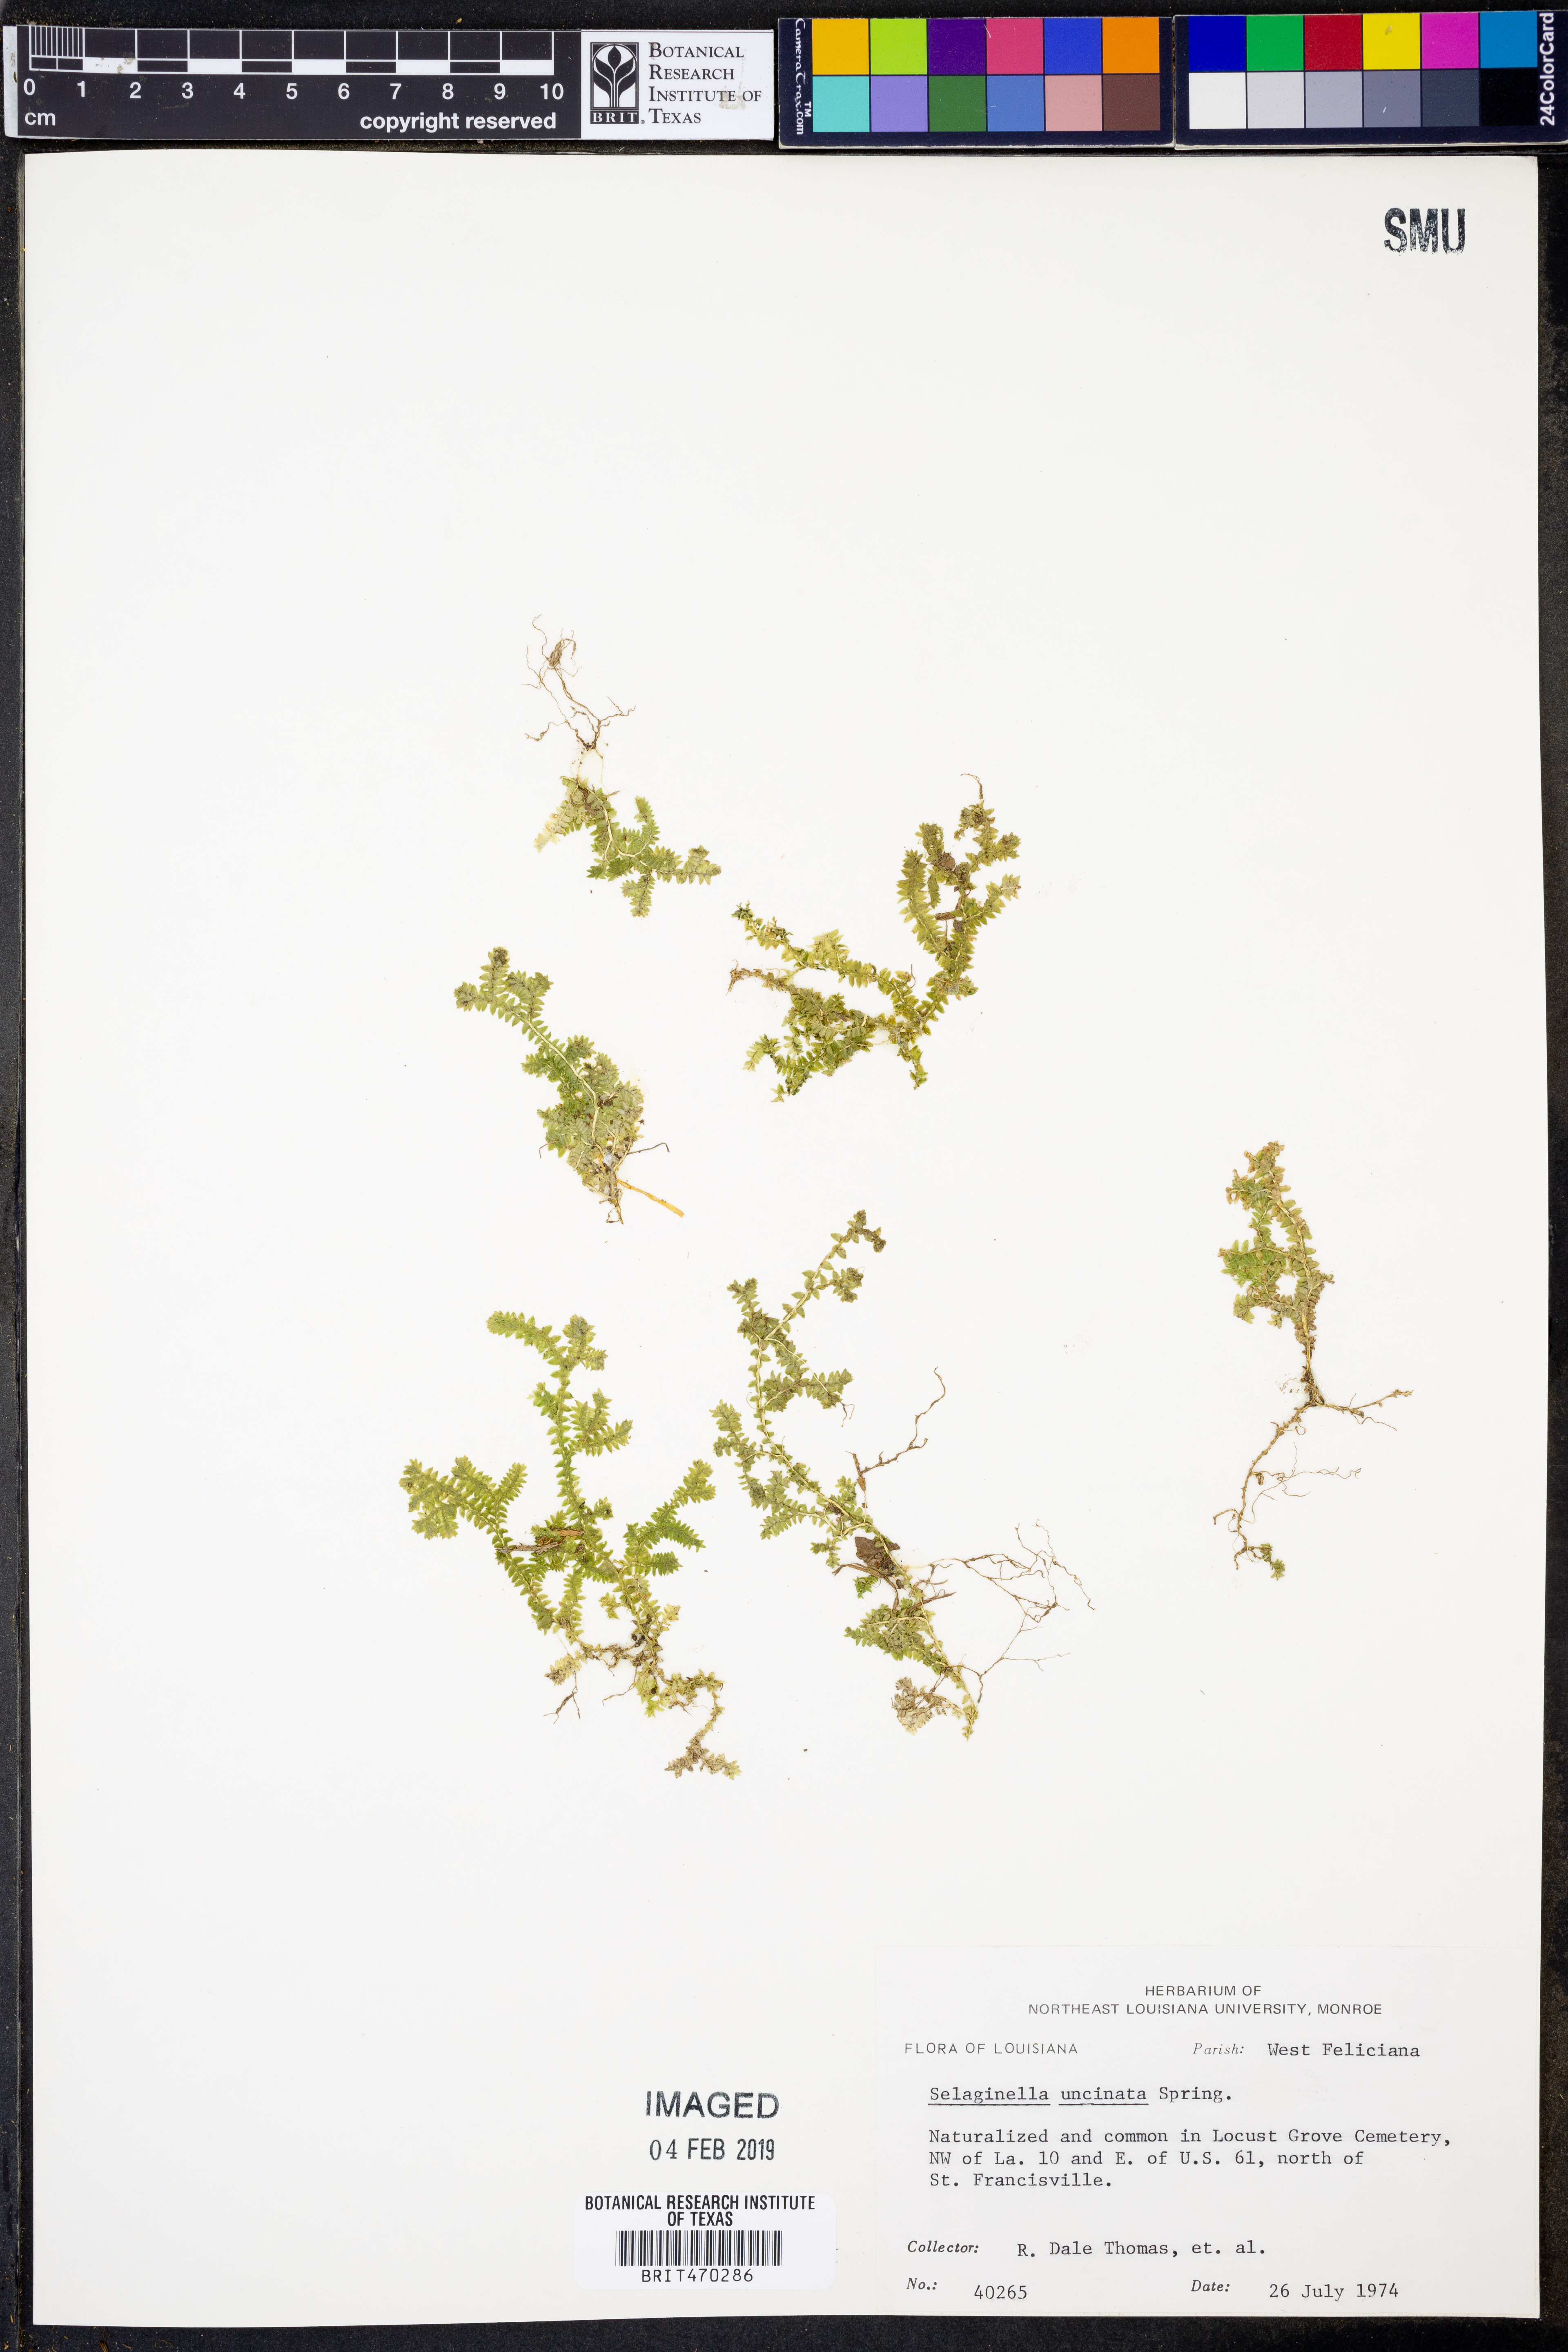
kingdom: Plantae
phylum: Tracheophyta
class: Lycopodiopsida
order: Selaginellales
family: Selaginellaceae
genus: Selaginella
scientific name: Selaginella uncinata
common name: Blue spikemoss
